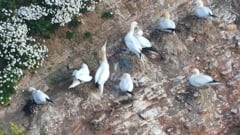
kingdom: Animalia
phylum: Chordata
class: Aves
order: Suliformes
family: Sulidae
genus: Morus
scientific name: Morus bassanus
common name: Northern gannet
